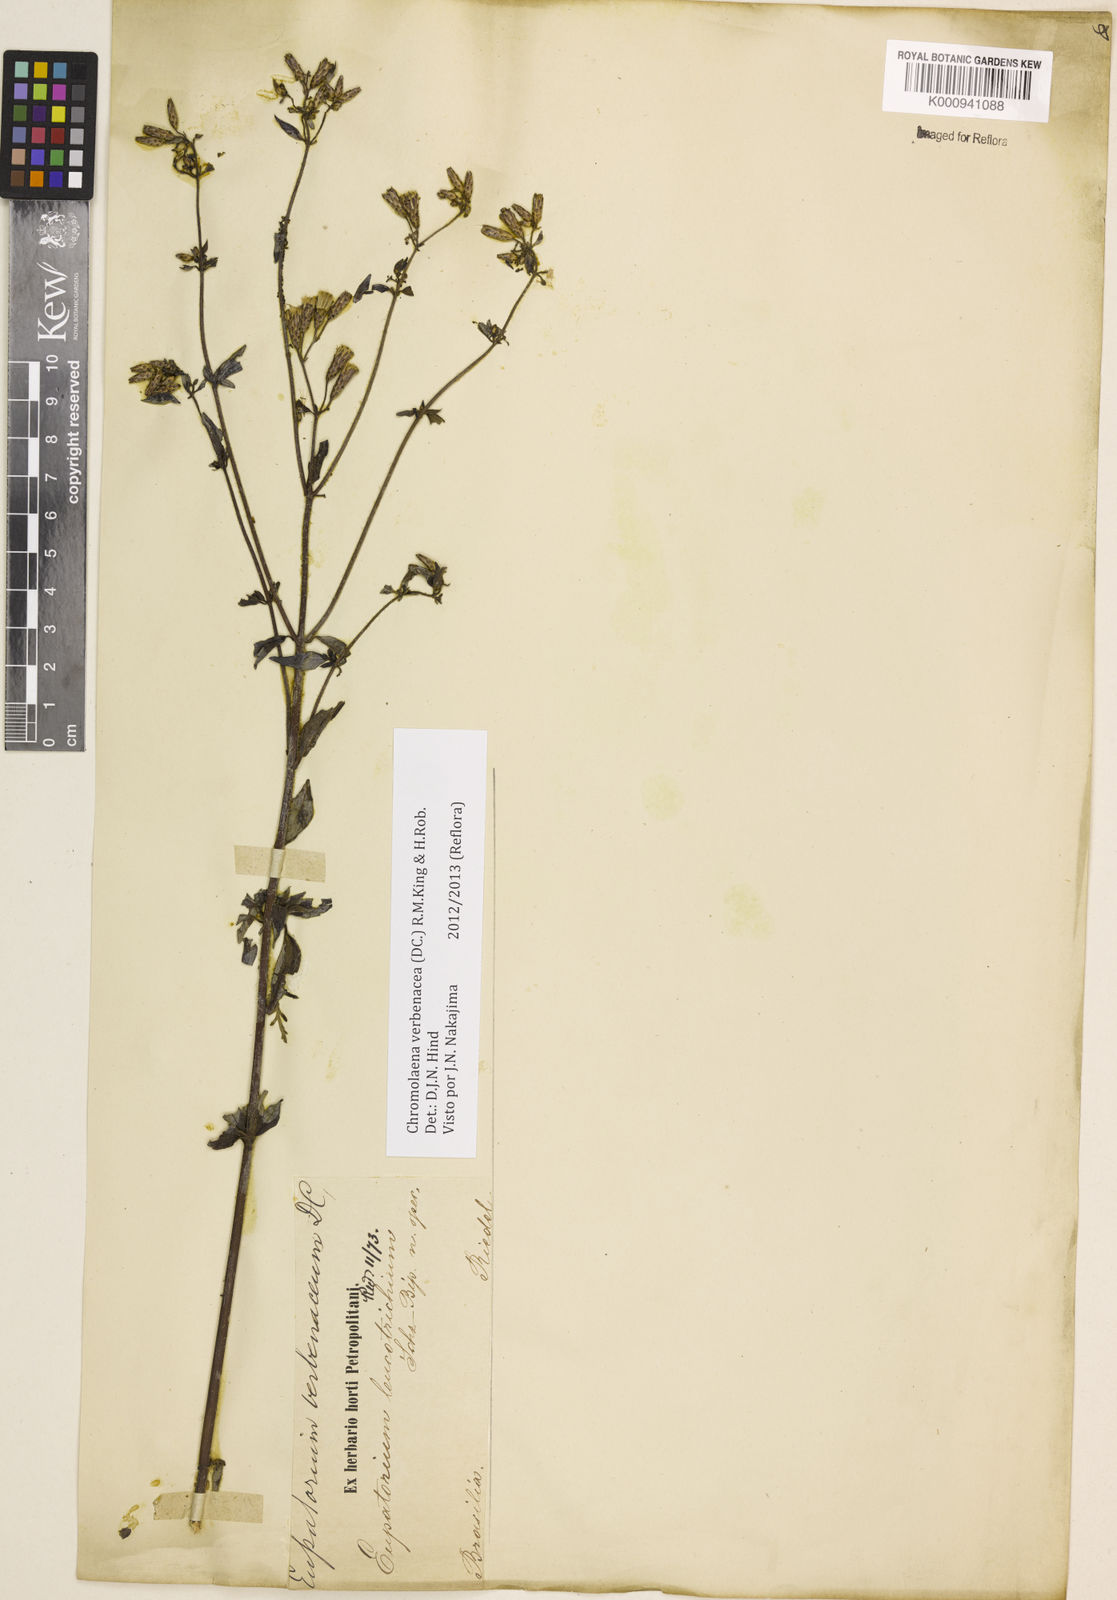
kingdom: Plantae
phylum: Tracheophyta
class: Magnoliopsida
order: Asterales
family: Asteraceae
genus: Chromolaena
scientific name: Chromolaena verbenacea
